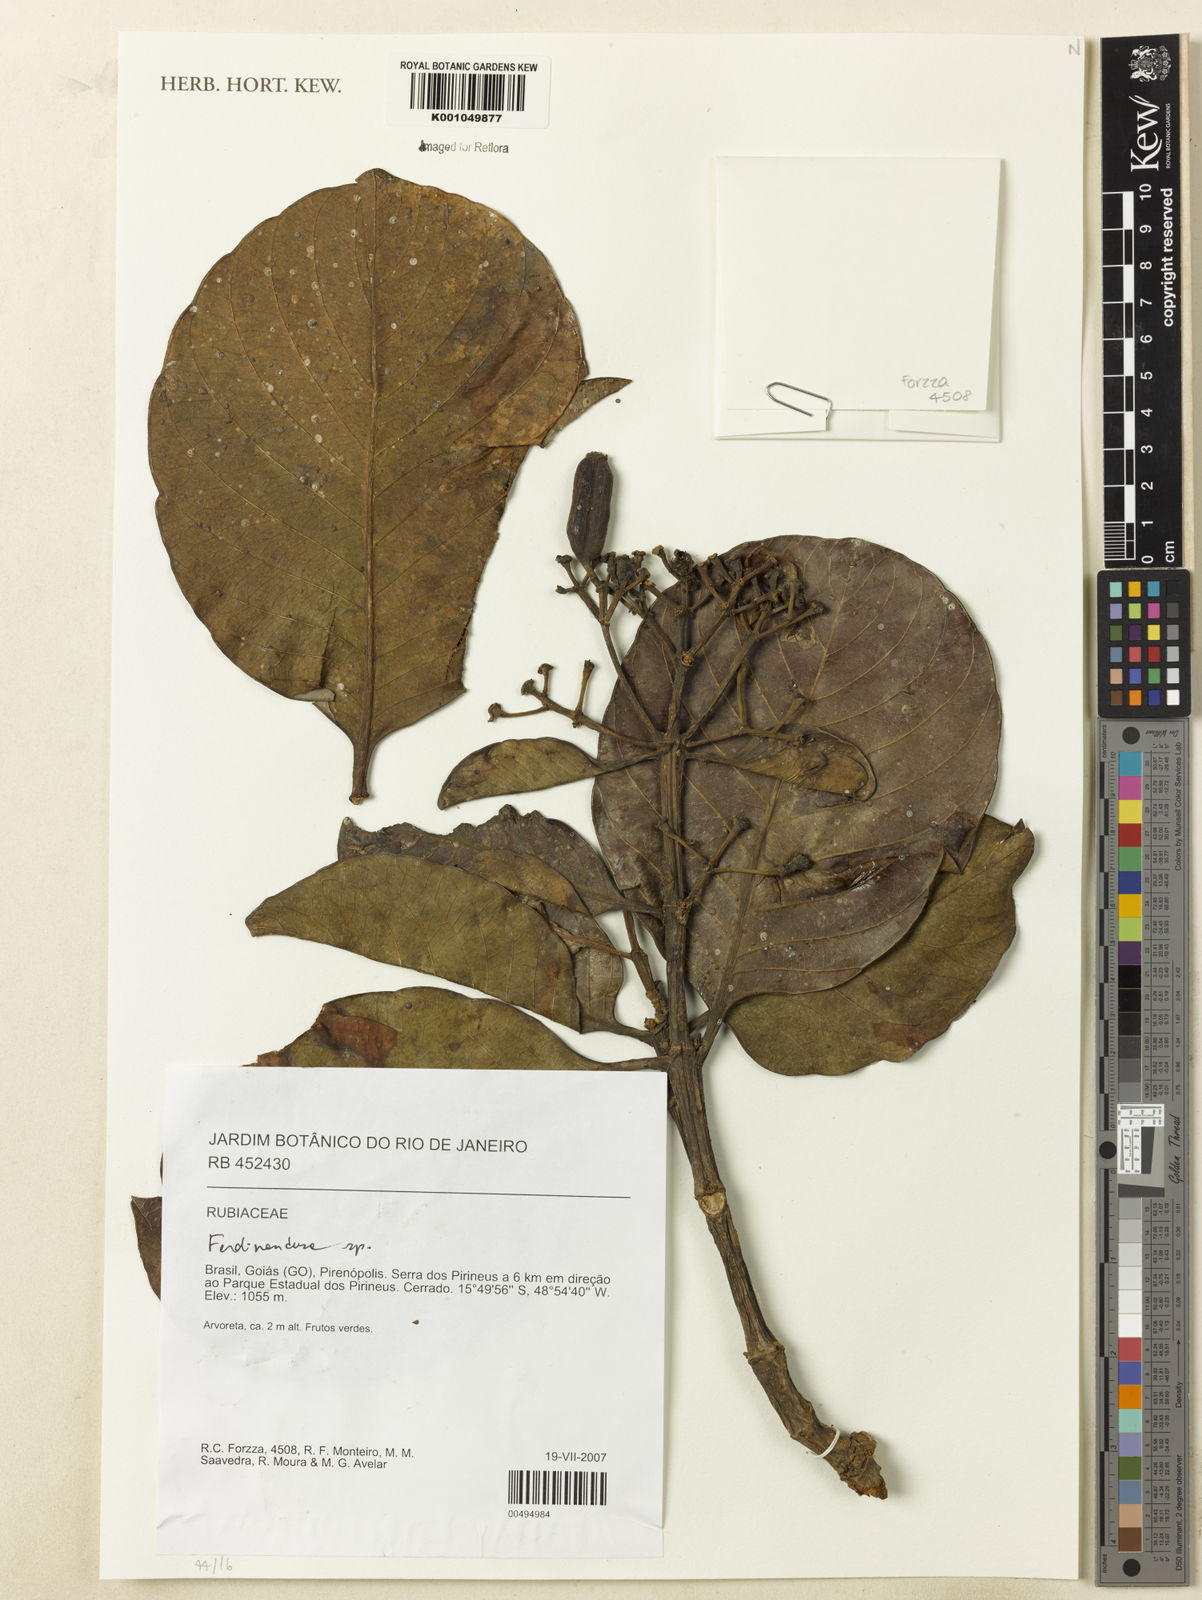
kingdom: Plantae
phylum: Tracheophyta
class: Magnoliopsida
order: Gentianales
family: Rubiaceae
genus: Ferdinandusa
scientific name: Ferdinandusa
